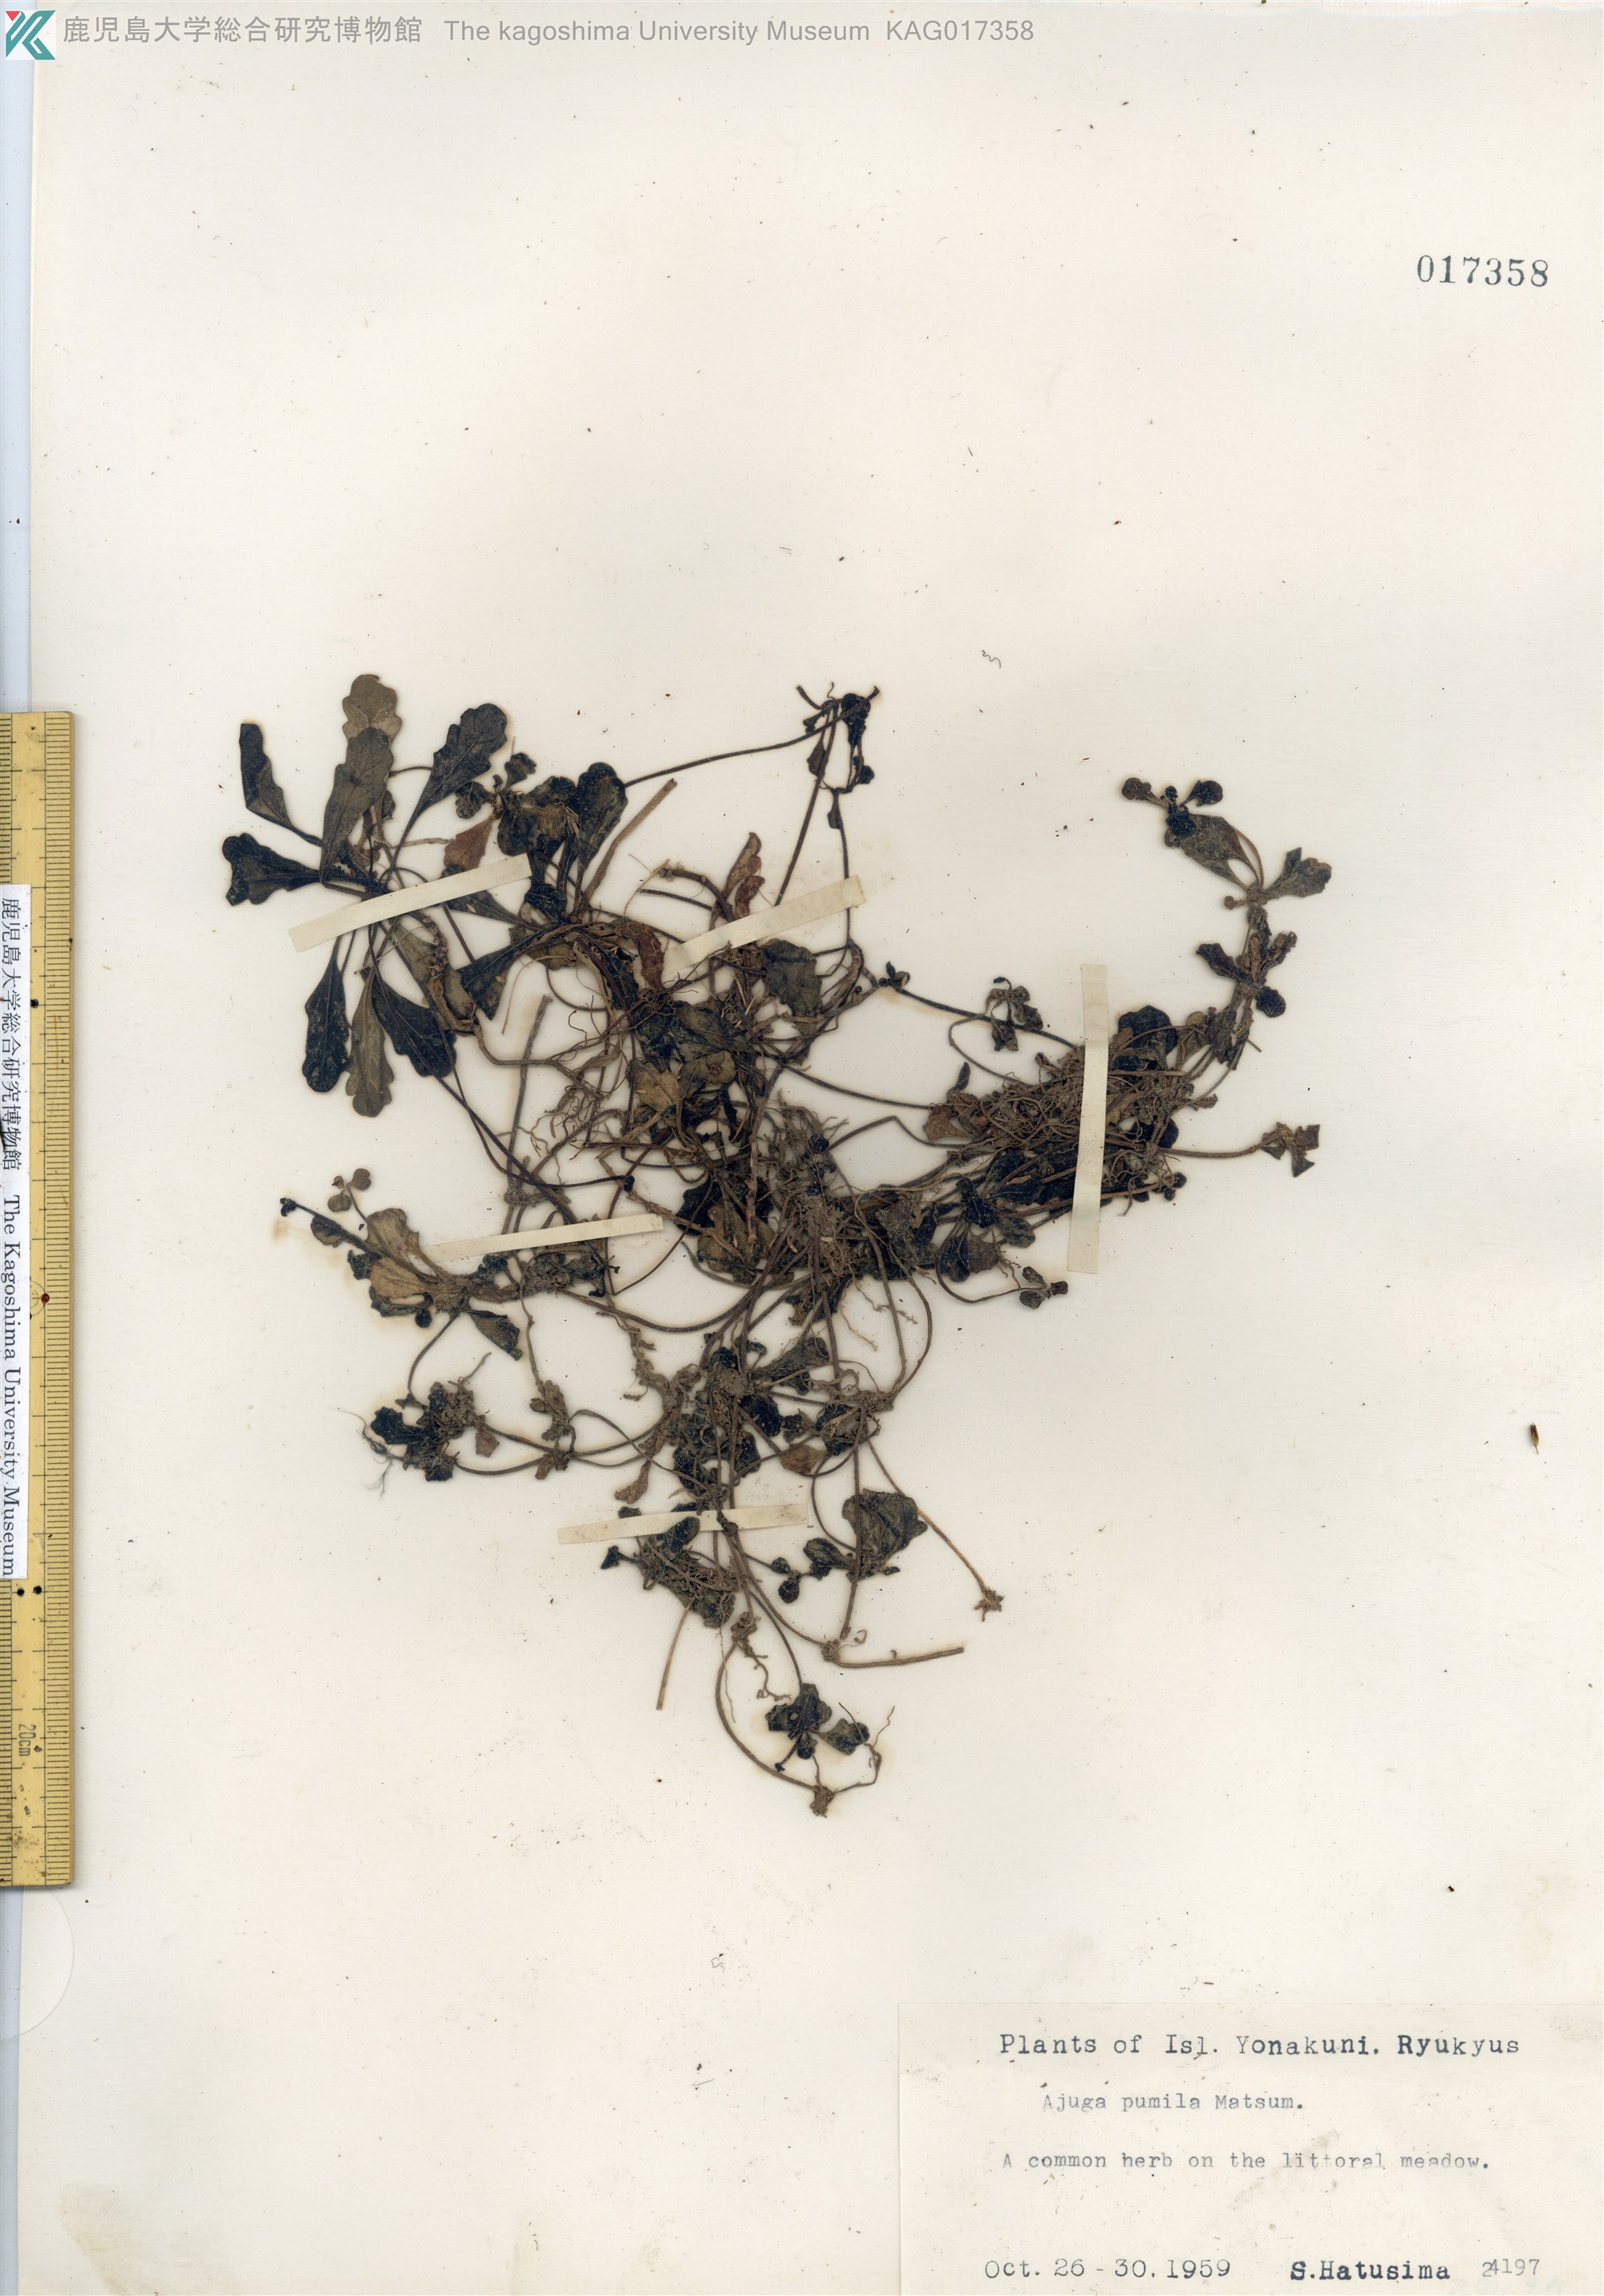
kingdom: Plantae
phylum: Tracheophyta
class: Magnoliopsida
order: Lamiales
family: Lamiaceae
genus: Ajuga
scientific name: Ajuga pygmaea
